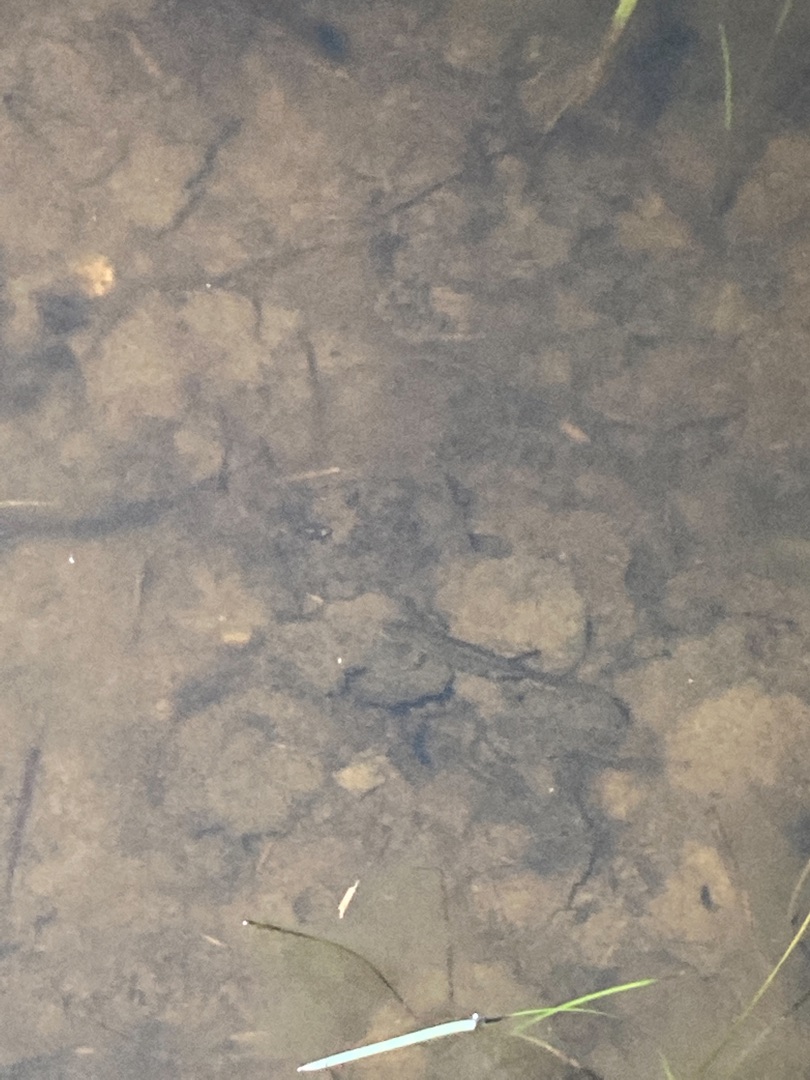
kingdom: Animalia
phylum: Chordata
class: Amphibia
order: Caudata
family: Salamandridae
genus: Lissotriton
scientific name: Lissotriton vulgaris
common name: Lille vandsalamander
